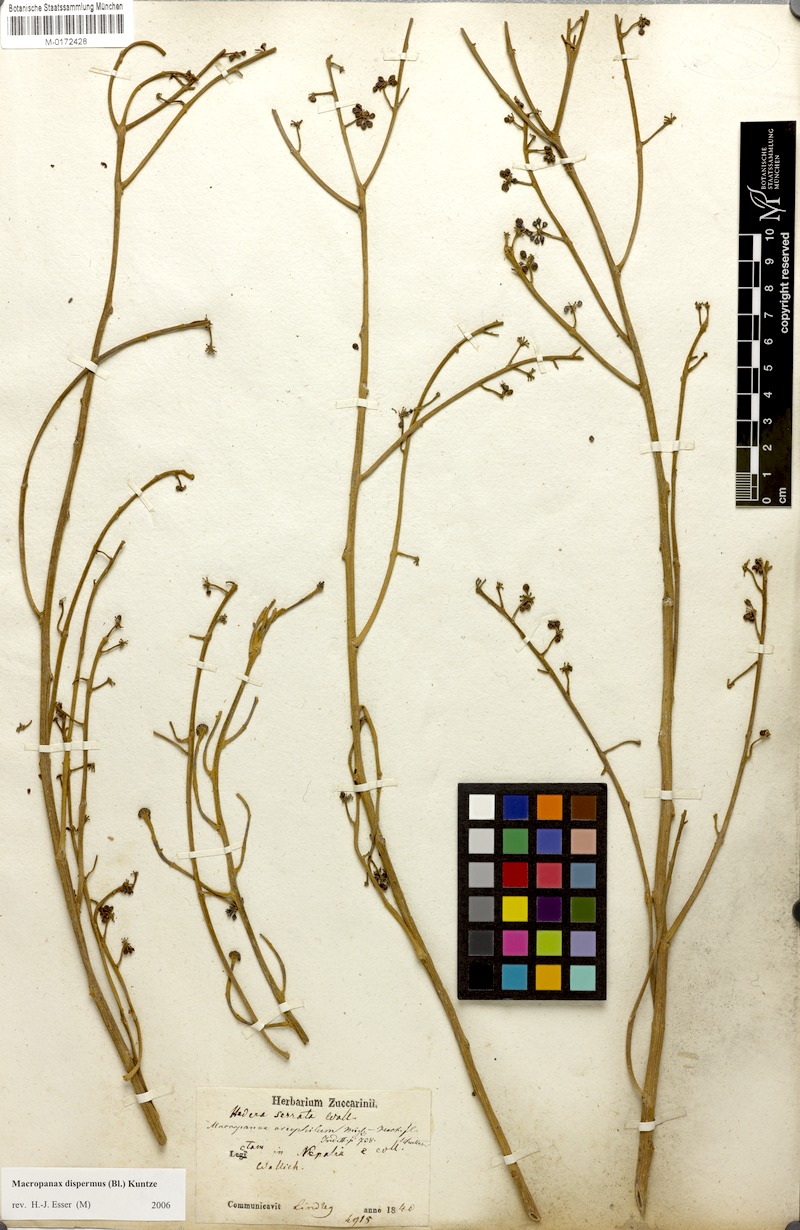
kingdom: Plantae
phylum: Tracheophyta
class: Magnoliopsida
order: Apiales
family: Araliaceae
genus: Macropanax
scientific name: Macropanax dispermus
